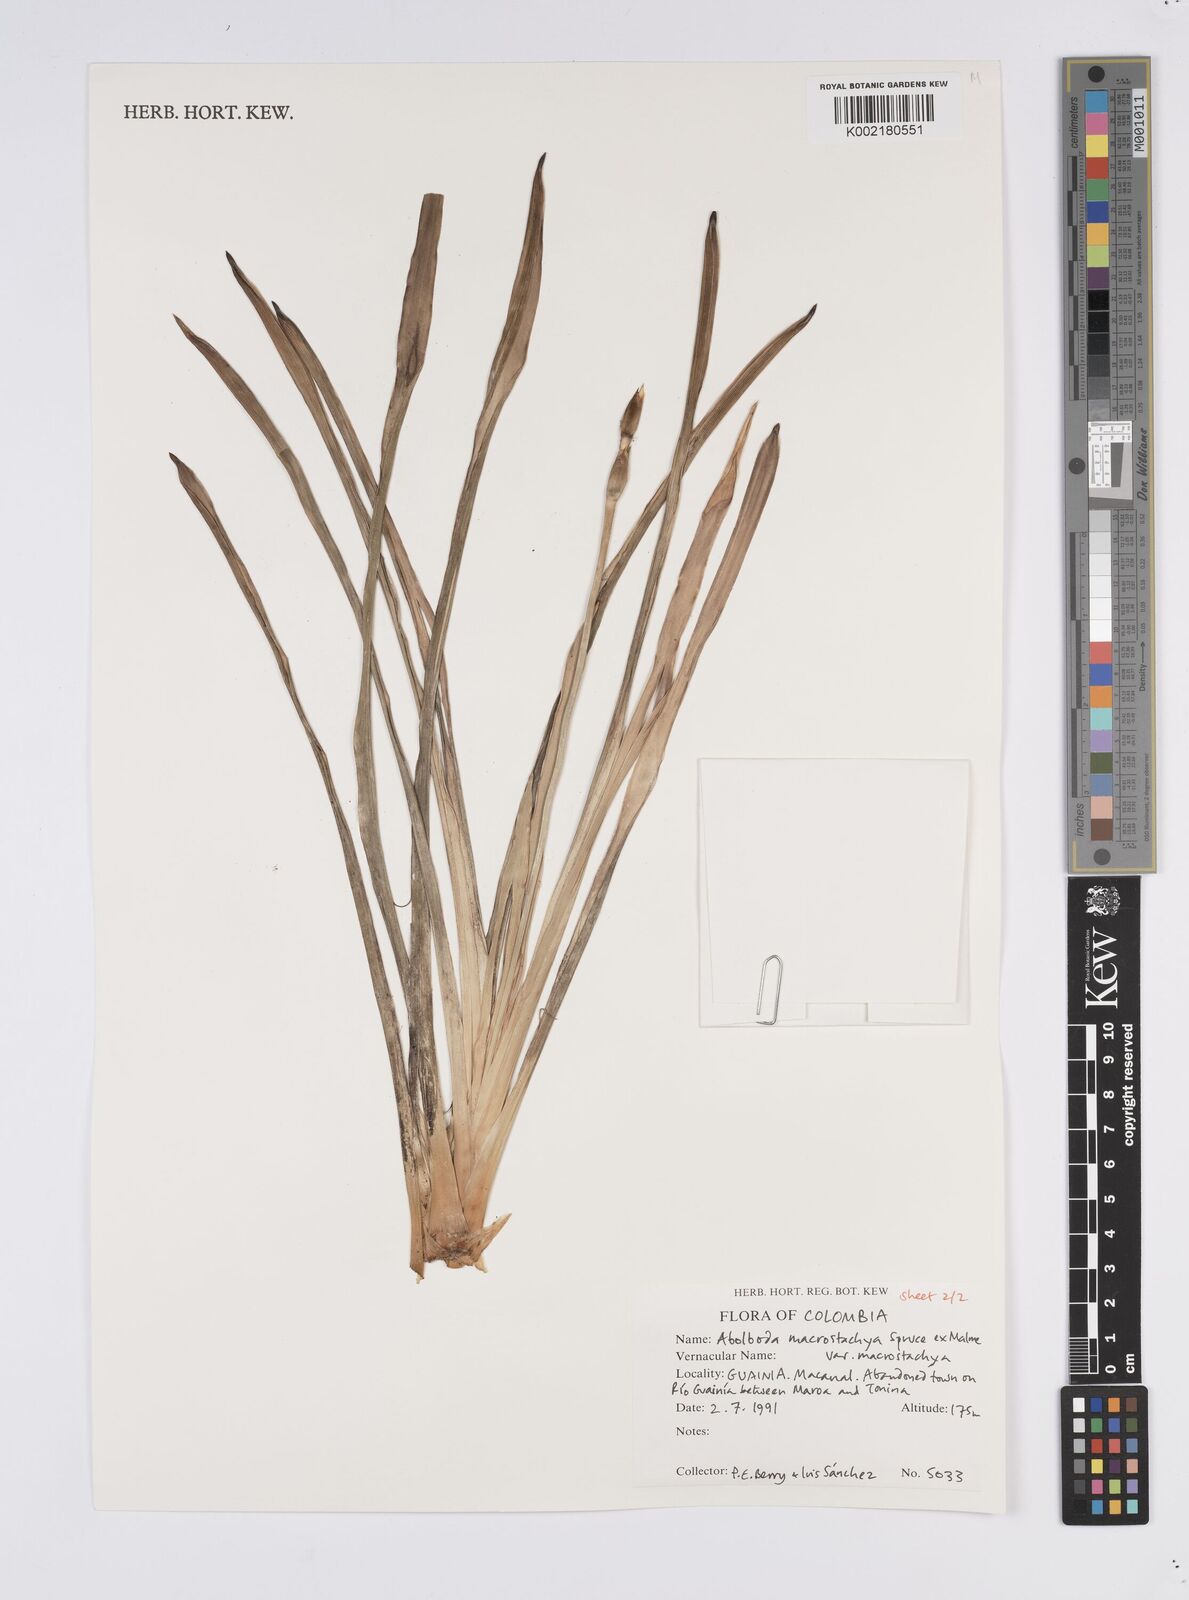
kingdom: Plantae
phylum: Tracheophyta
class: Liliopsida
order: Poales
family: Xyridaceae
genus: Abolboda
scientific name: Abolboda macrostachya
